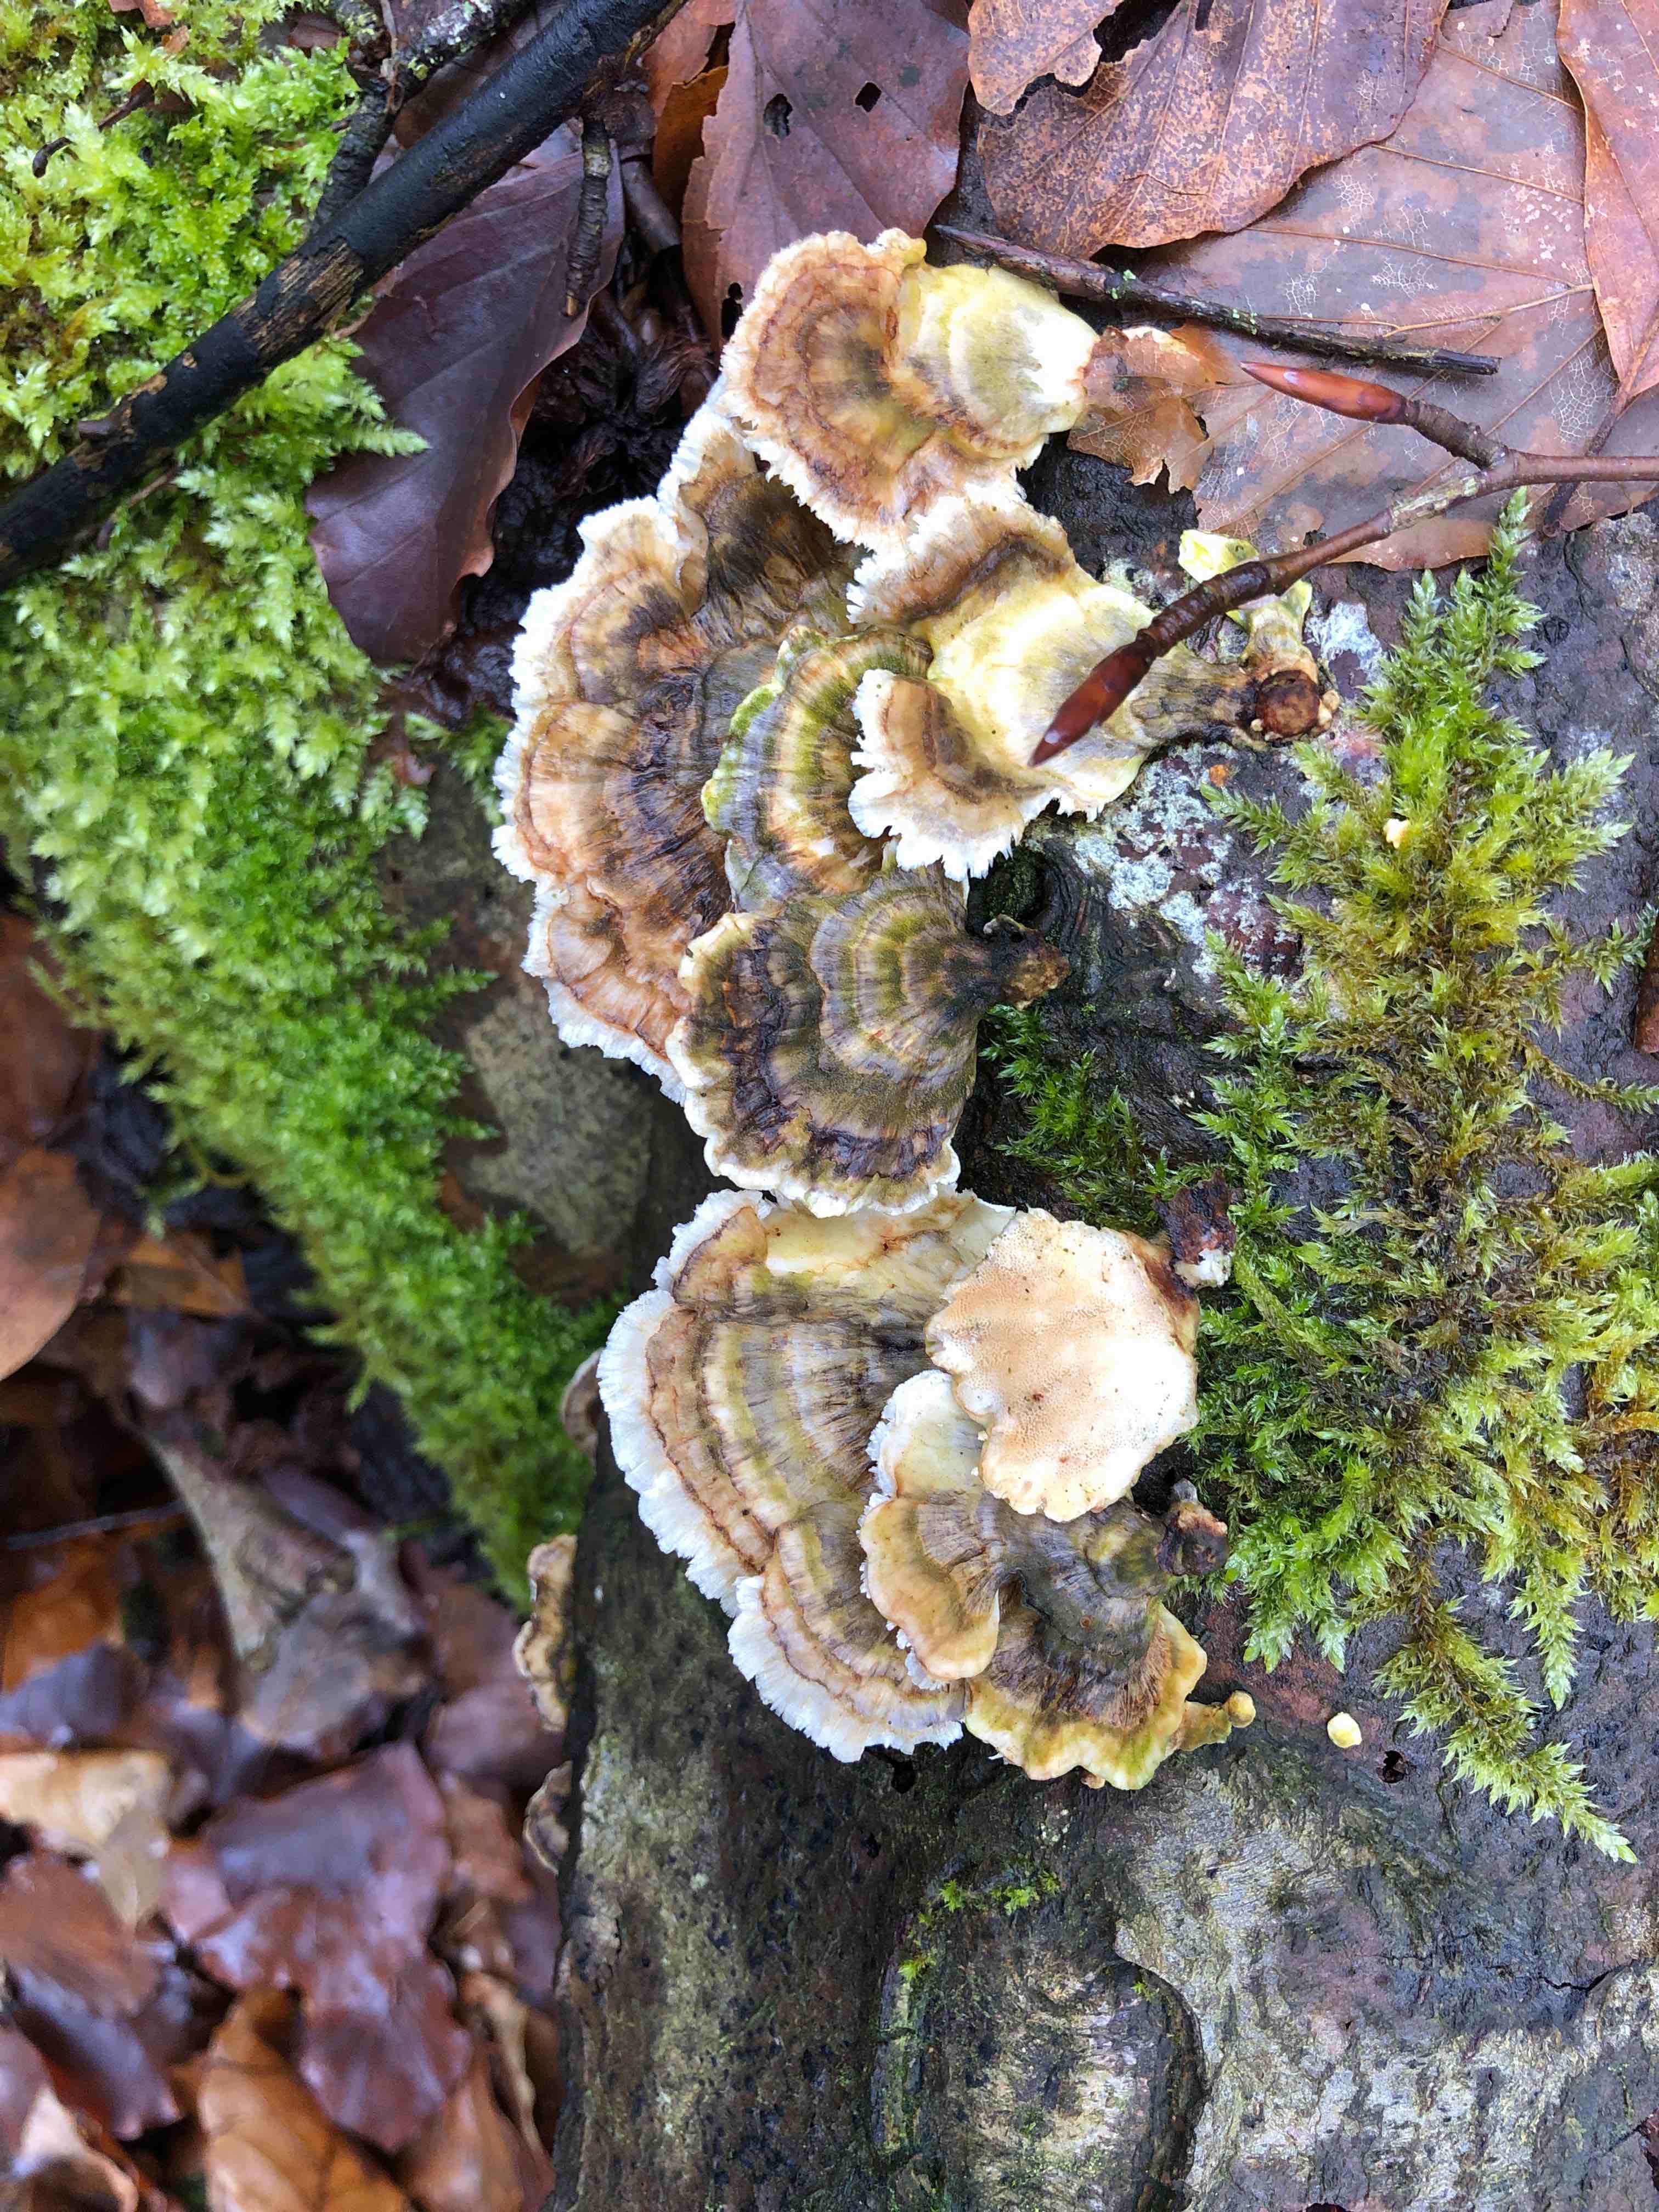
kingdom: Fungi
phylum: Basidiomycota
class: Agaricomycetes
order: Polyporales
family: Polyporaceae
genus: Trametes
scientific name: Trametes versicolor
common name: broget læderporesvamp
